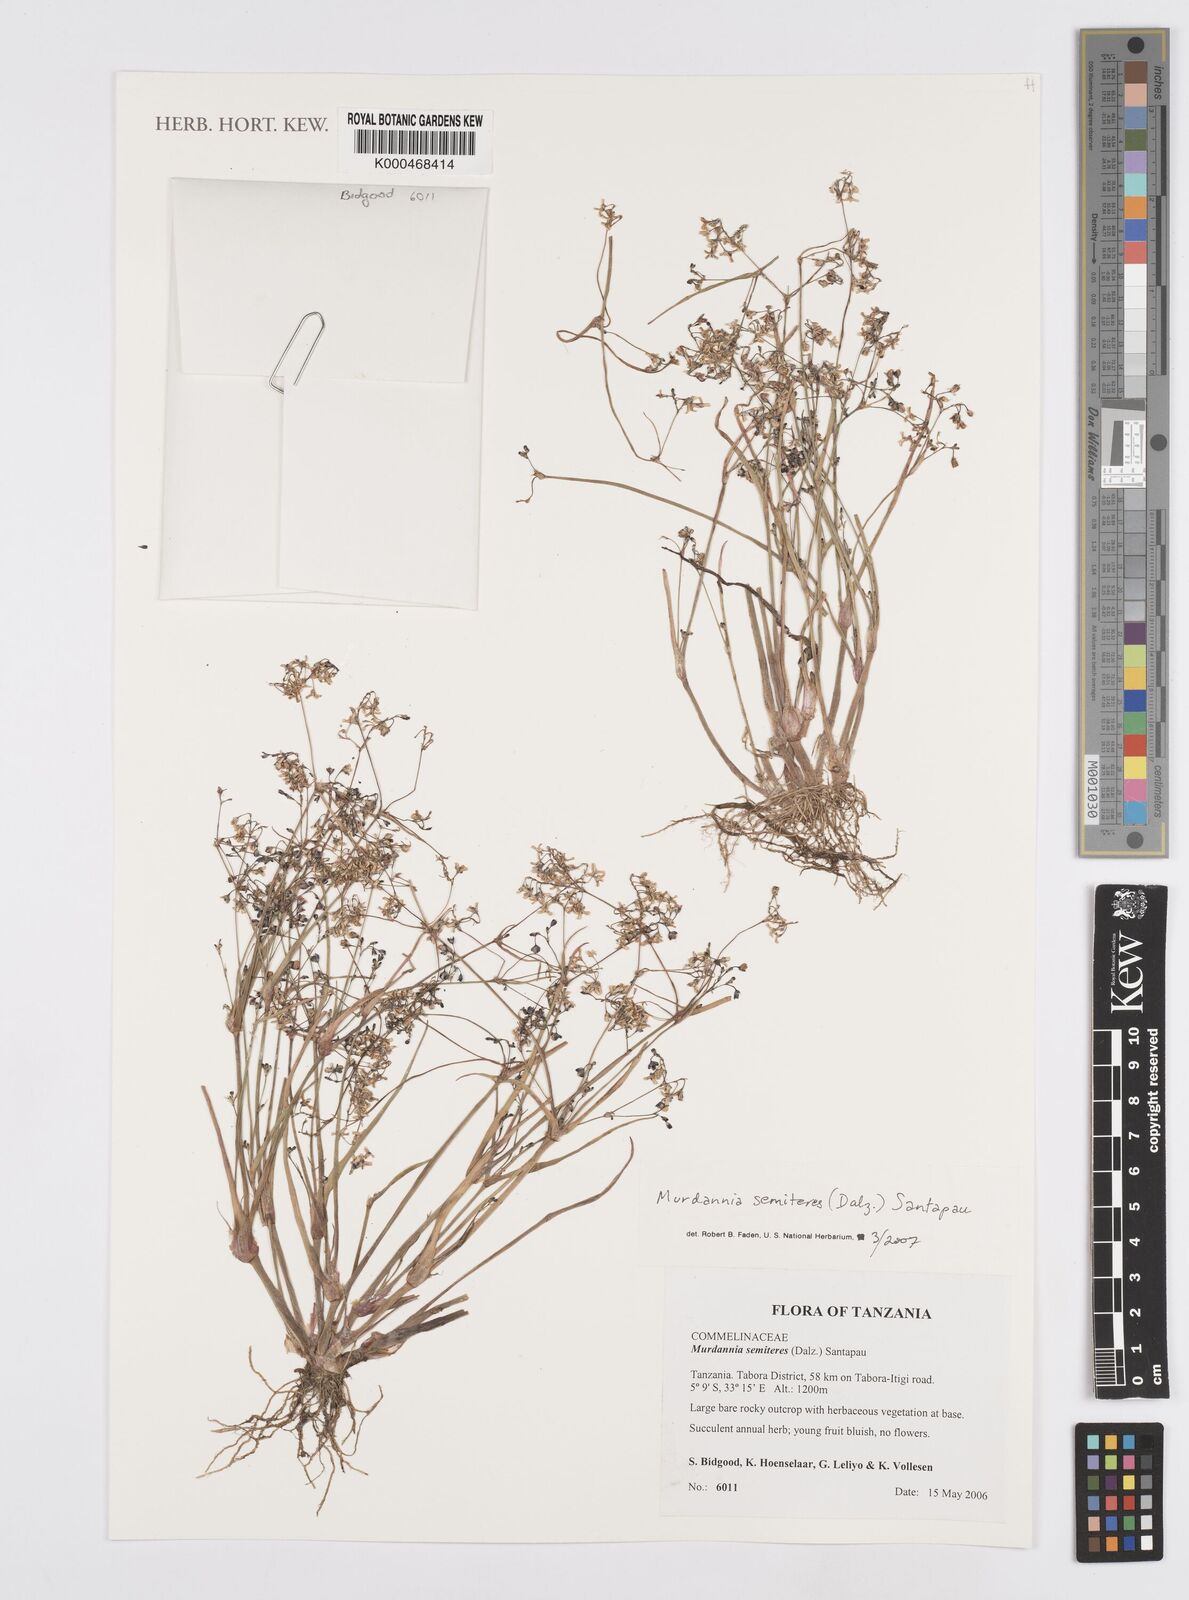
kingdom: Plantae
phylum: Tracheophyta
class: Liliopsida
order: Commelinales
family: Commelinaceae
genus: Murdannia
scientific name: Murdannia semiteres
